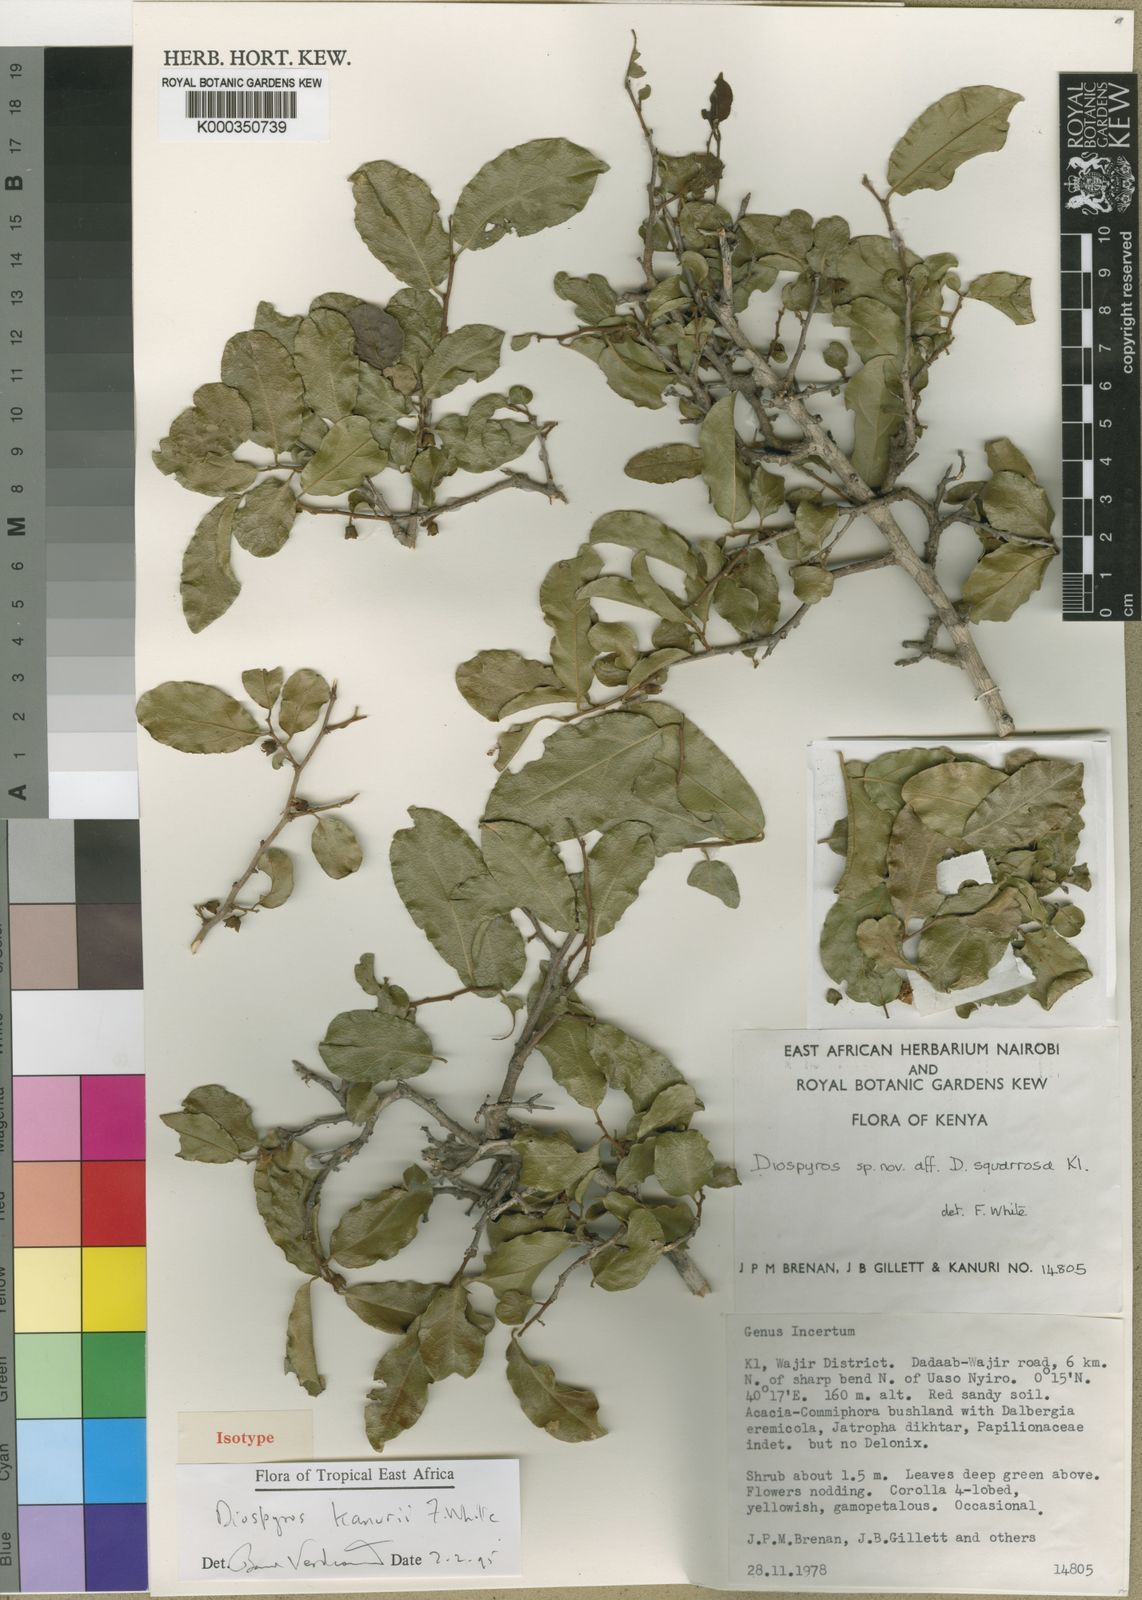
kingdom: Plantae
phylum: Tracheophyta
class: Magnoliopsida
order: Ericales
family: Ebenaceae
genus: Diospyros
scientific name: Diospyros kanurii
